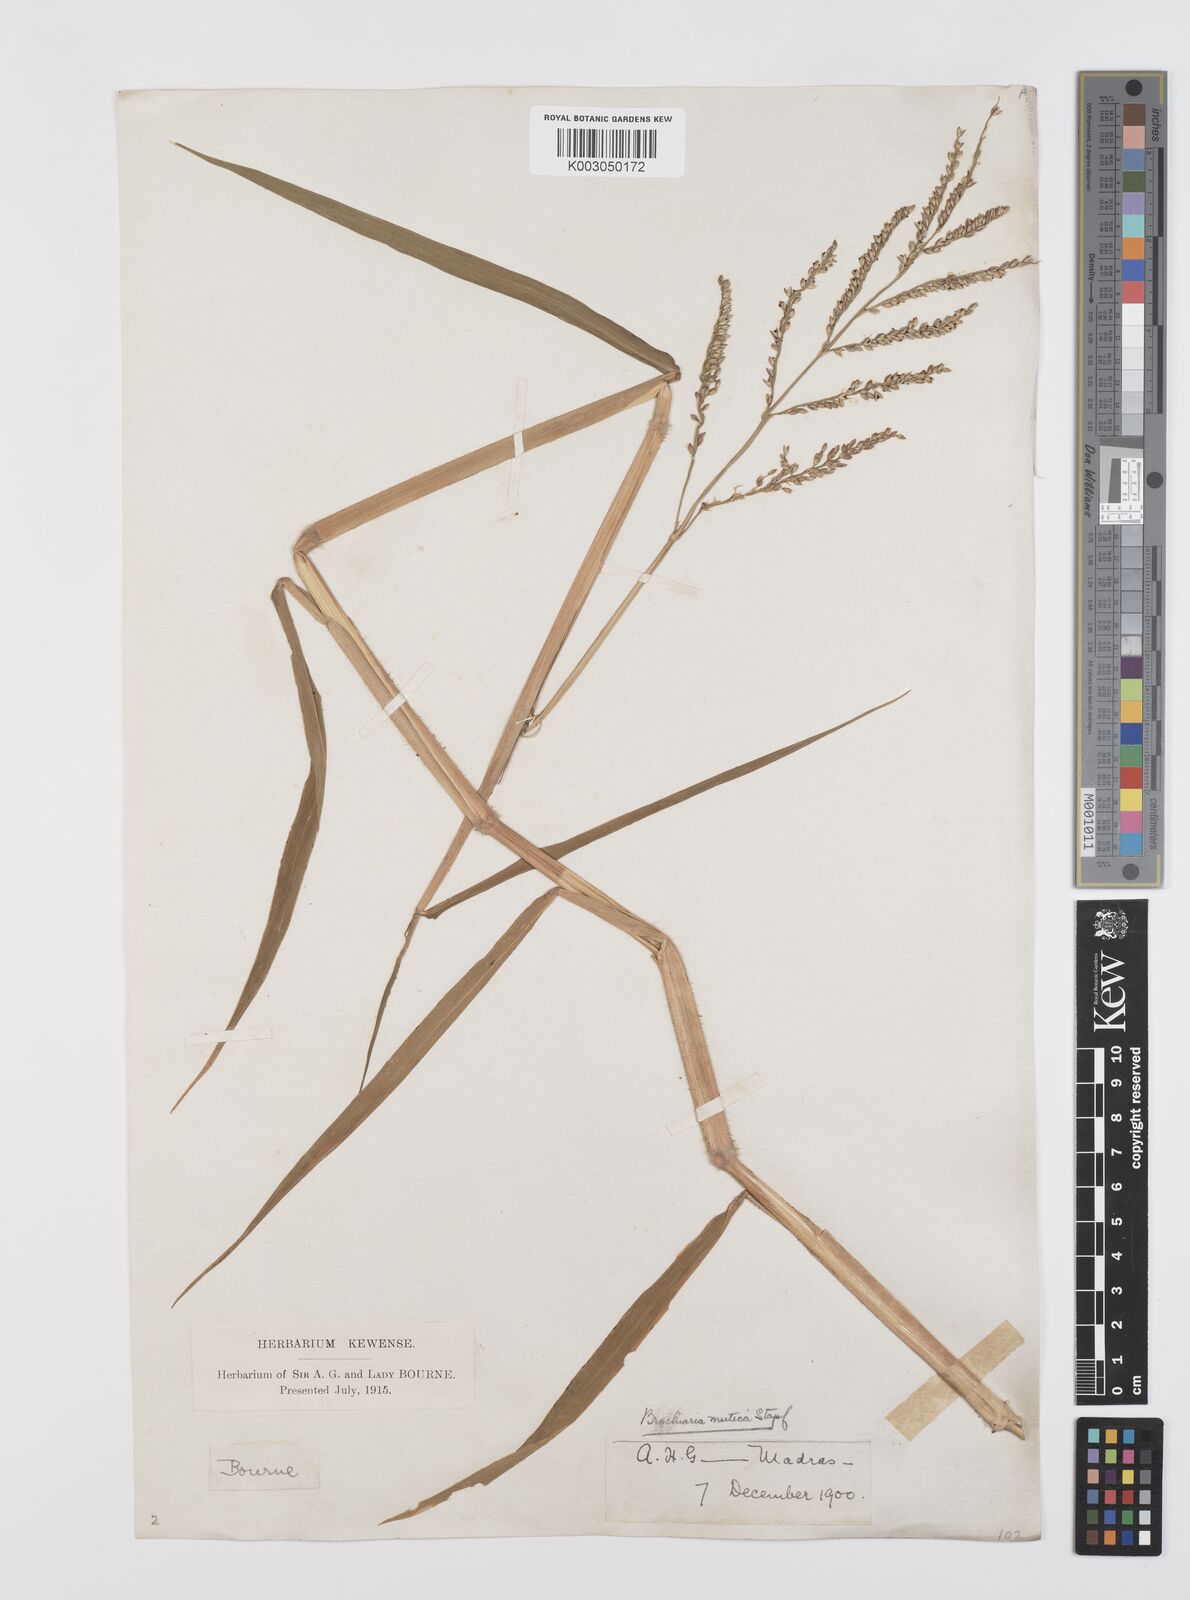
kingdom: Plantae
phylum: Tracheophyta
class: Liliopsida
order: Poales
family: Poaceae
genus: Urochloa
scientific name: Urochloa mutica
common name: Para grass
